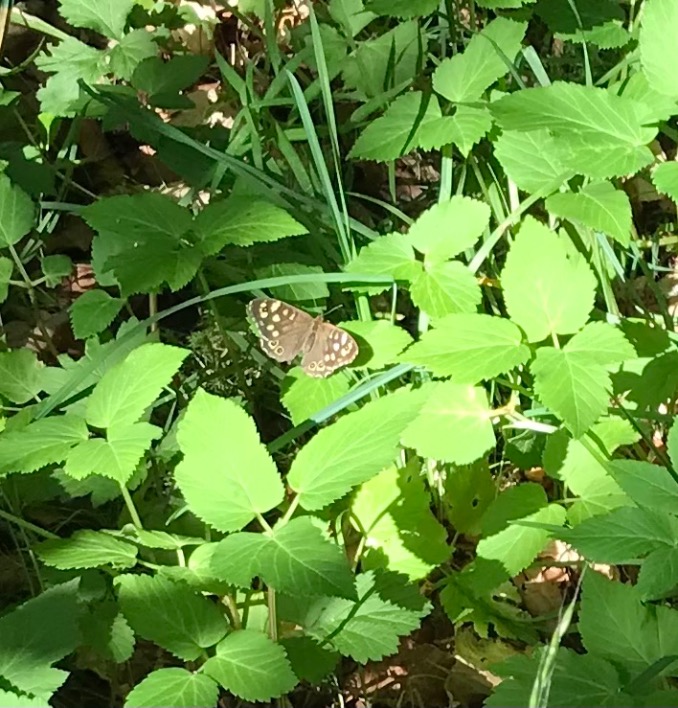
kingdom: Animalia
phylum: Arthropoda
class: Insecta
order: Lepidoptera
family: Nymphalidae
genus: Pararge
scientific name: Pararge aegeria
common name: Skovrandøje
